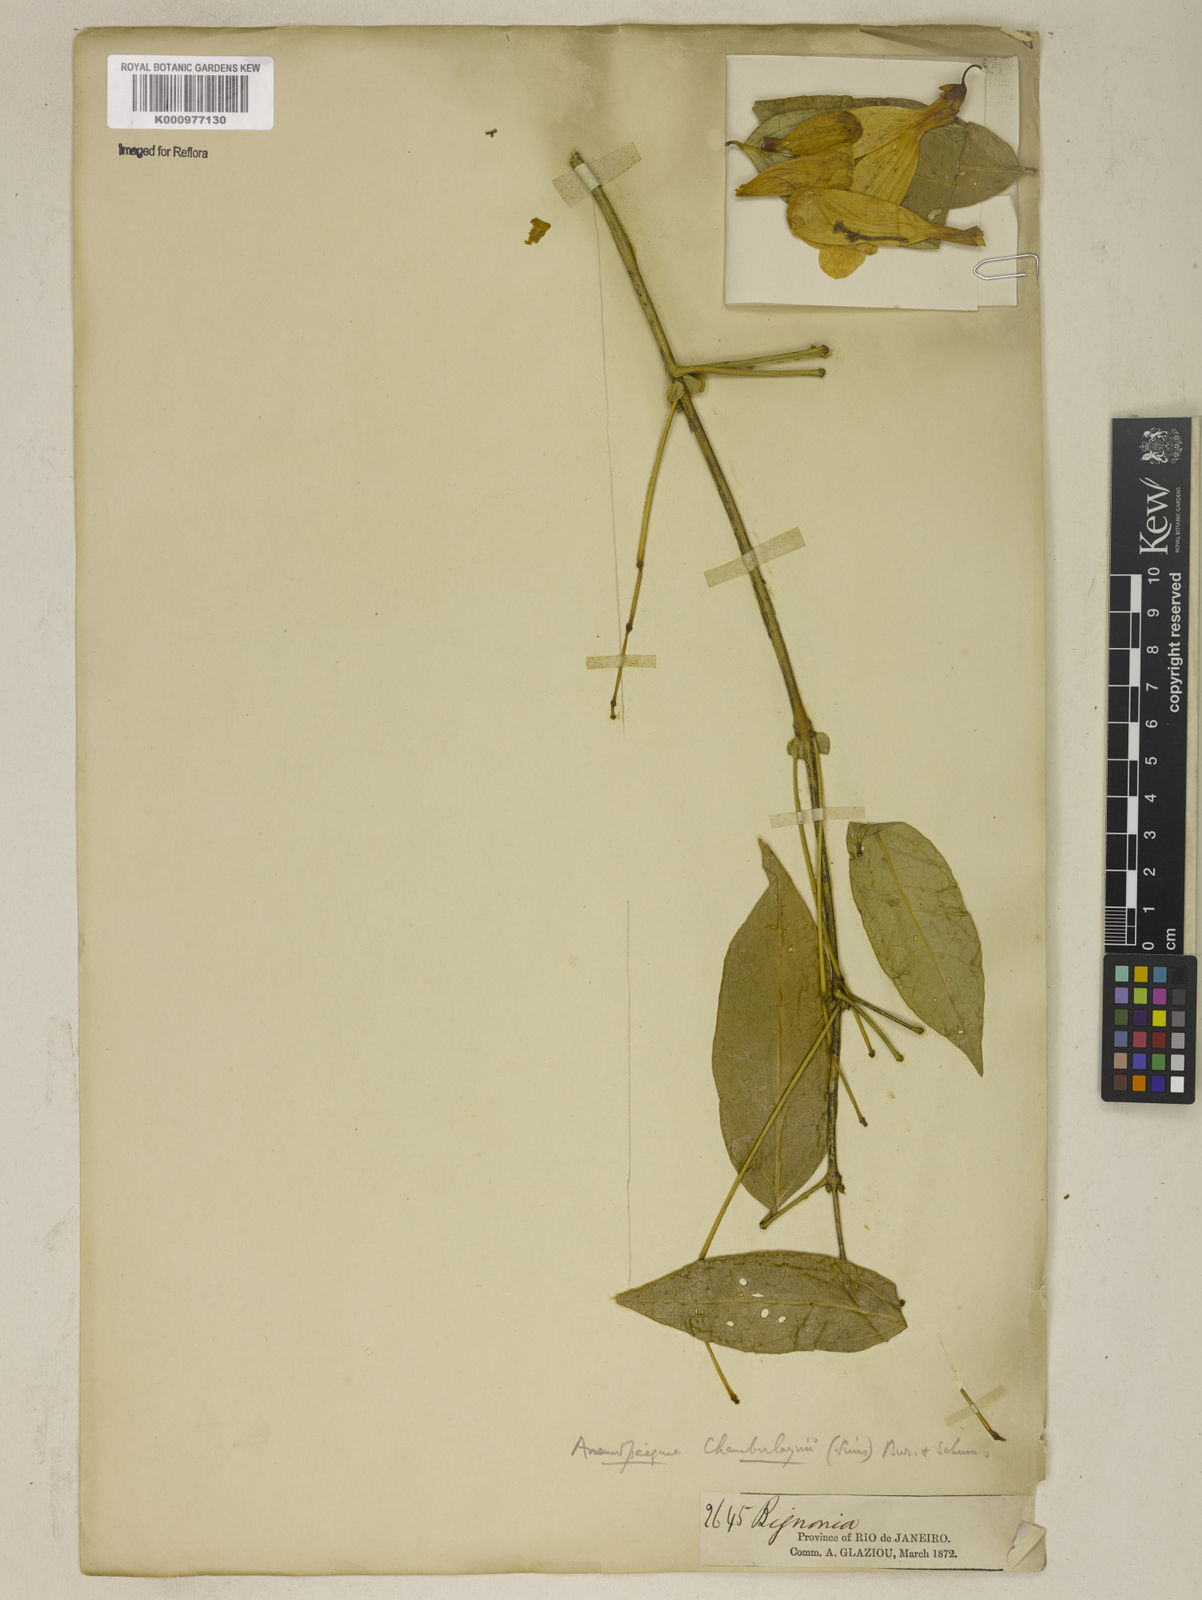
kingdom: Plantae
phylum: Tracheophyta
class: Magnoliopsida
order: Lamiales
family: Bignoniaceae
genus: Anemopaegma
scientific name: Anemopaegma chamberlaynii
